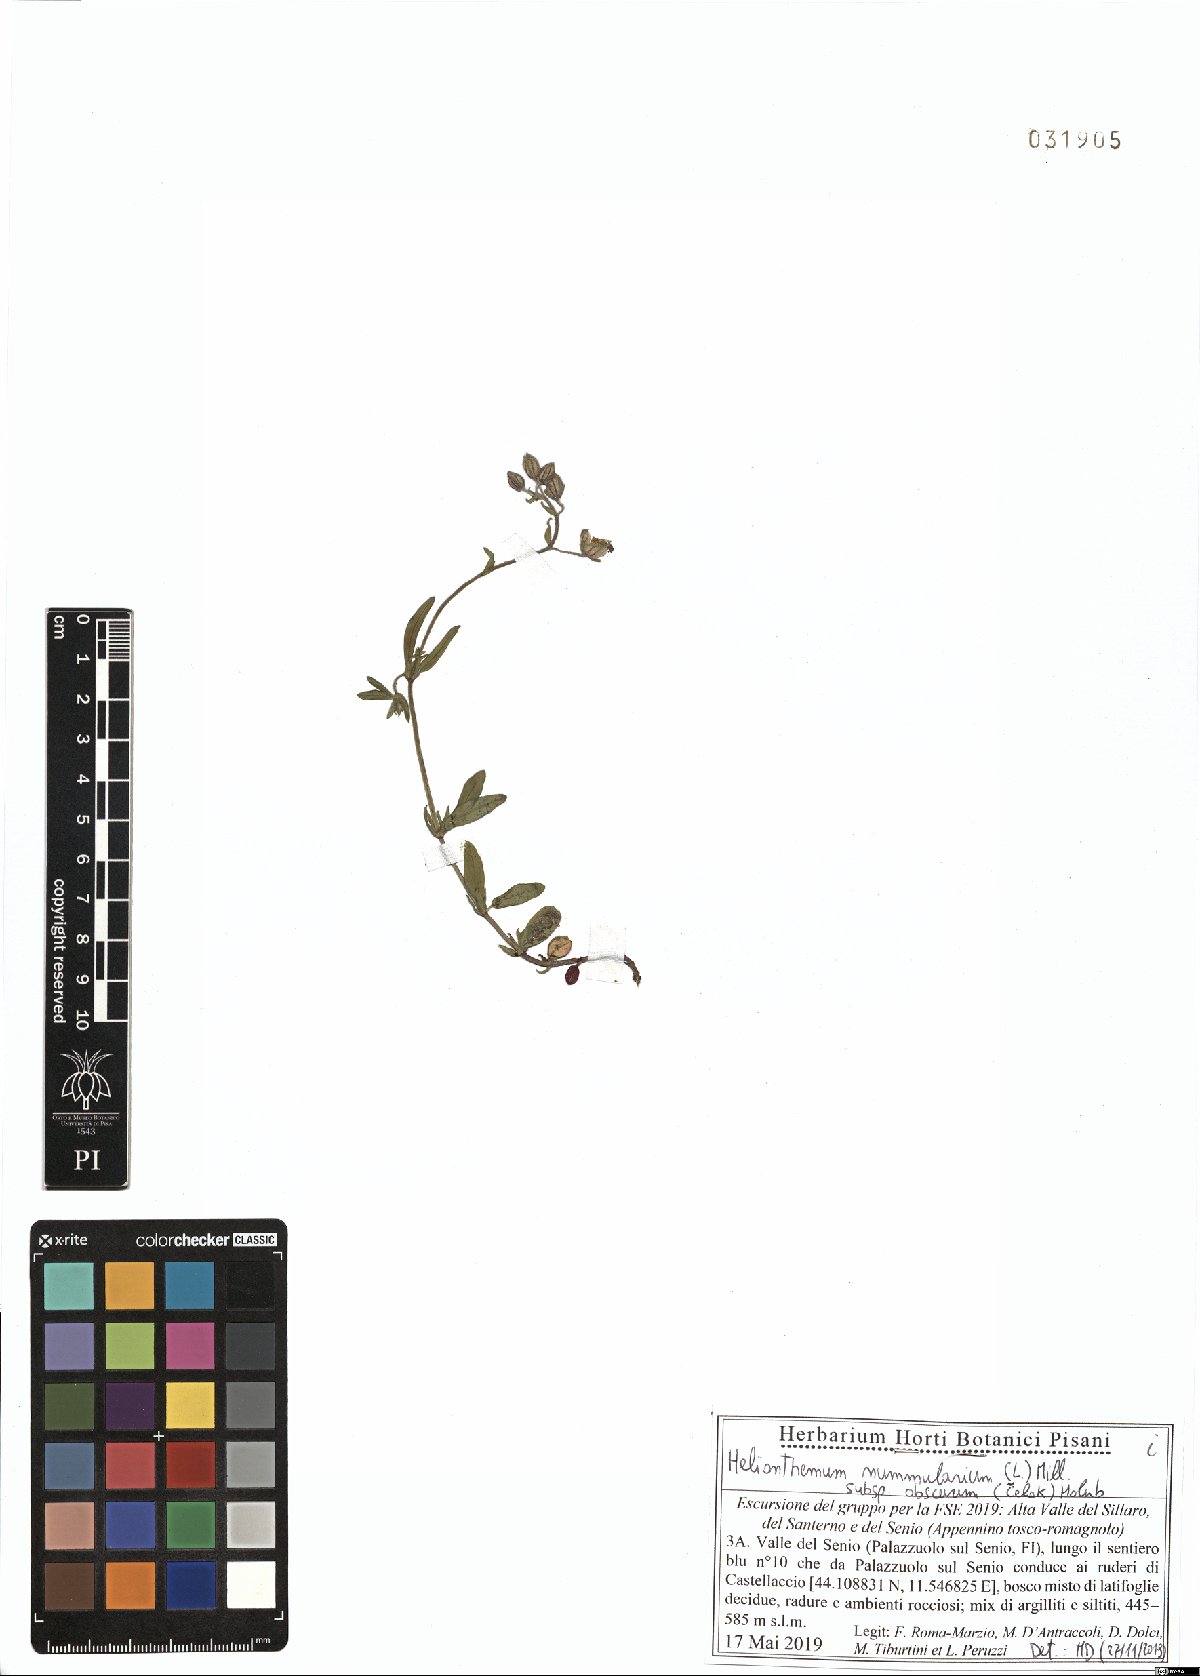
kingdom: Plantae
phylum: Tracheophyta
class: Magnoliopsida
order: Malvales
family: Cistaceae
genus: Helianthemum
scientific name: Helianthemum nummularium
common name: Common rock-rose
